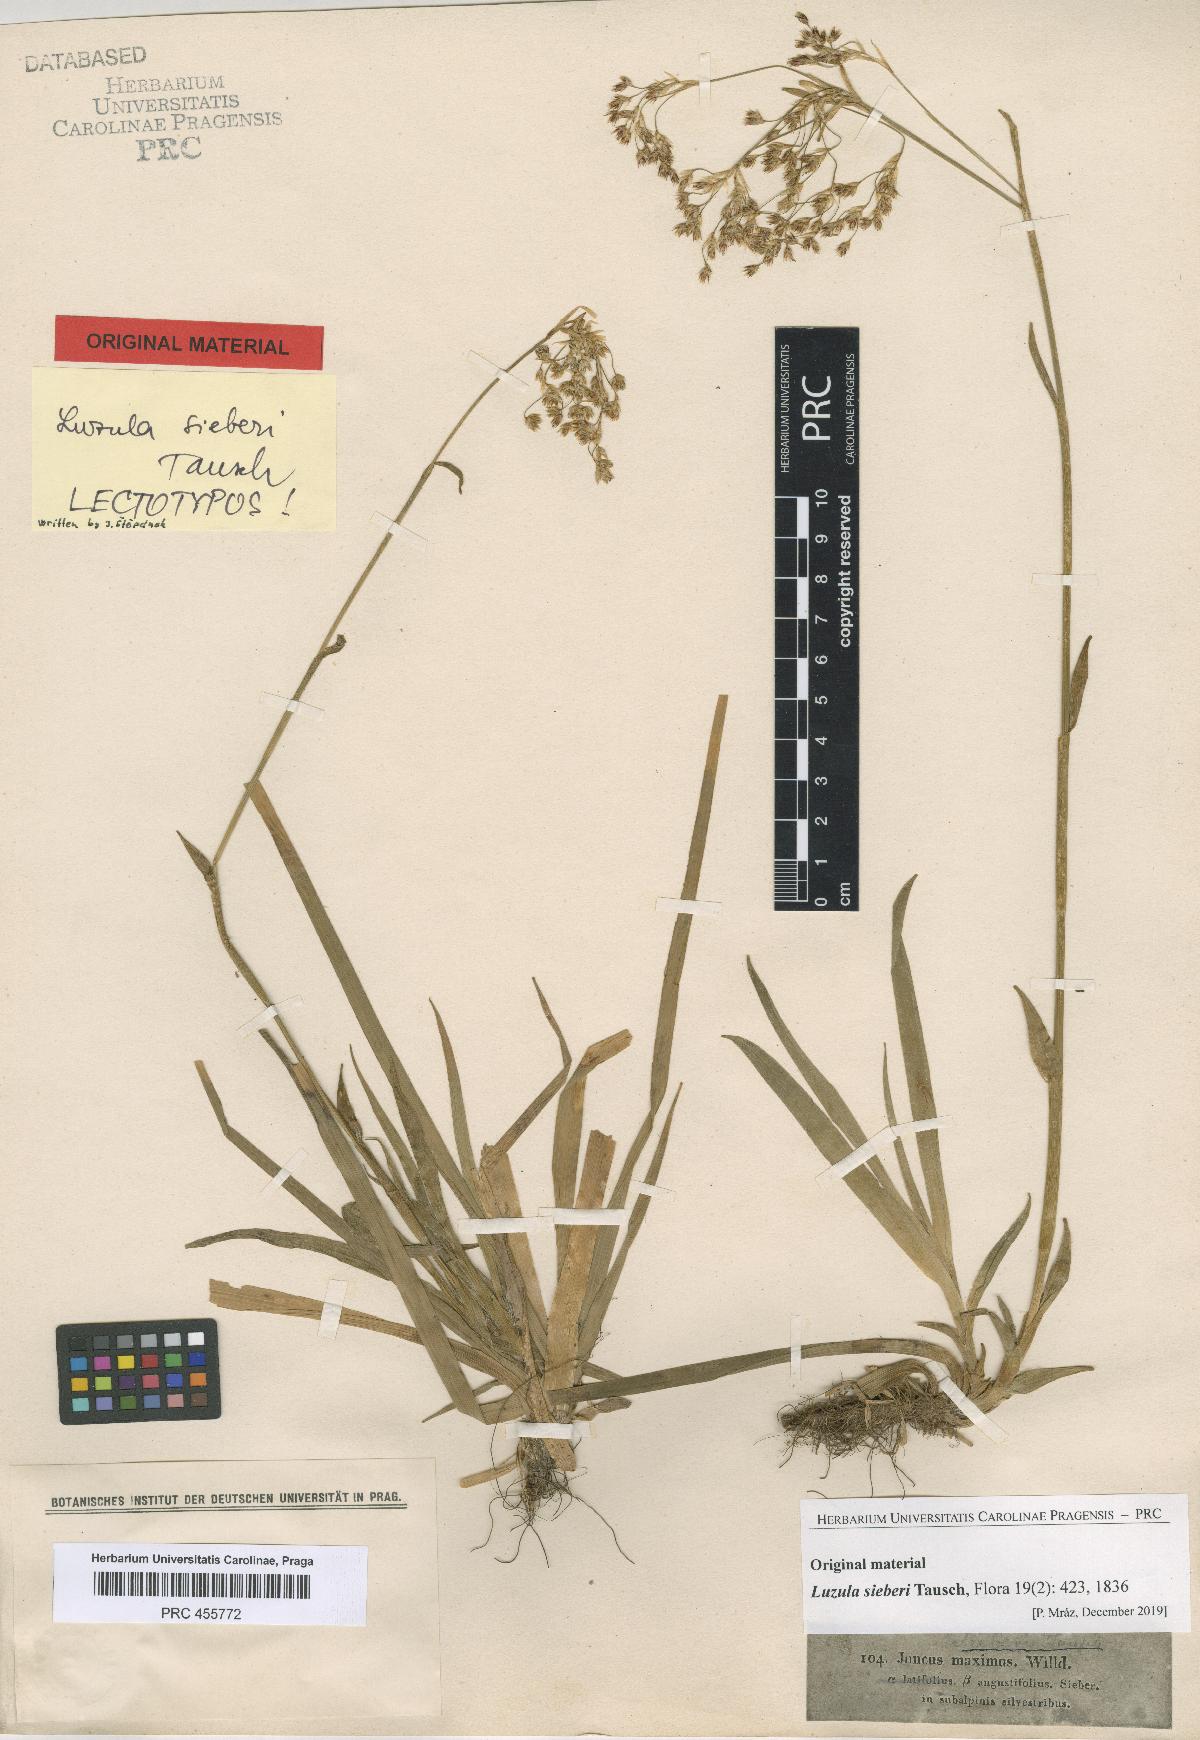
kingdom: Plantae
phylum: Tracheophyta
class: Liliopsida
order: Poales
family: Juncaceae
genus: Luzula
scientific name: Luzula sylvatica
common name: Great wood-rush
